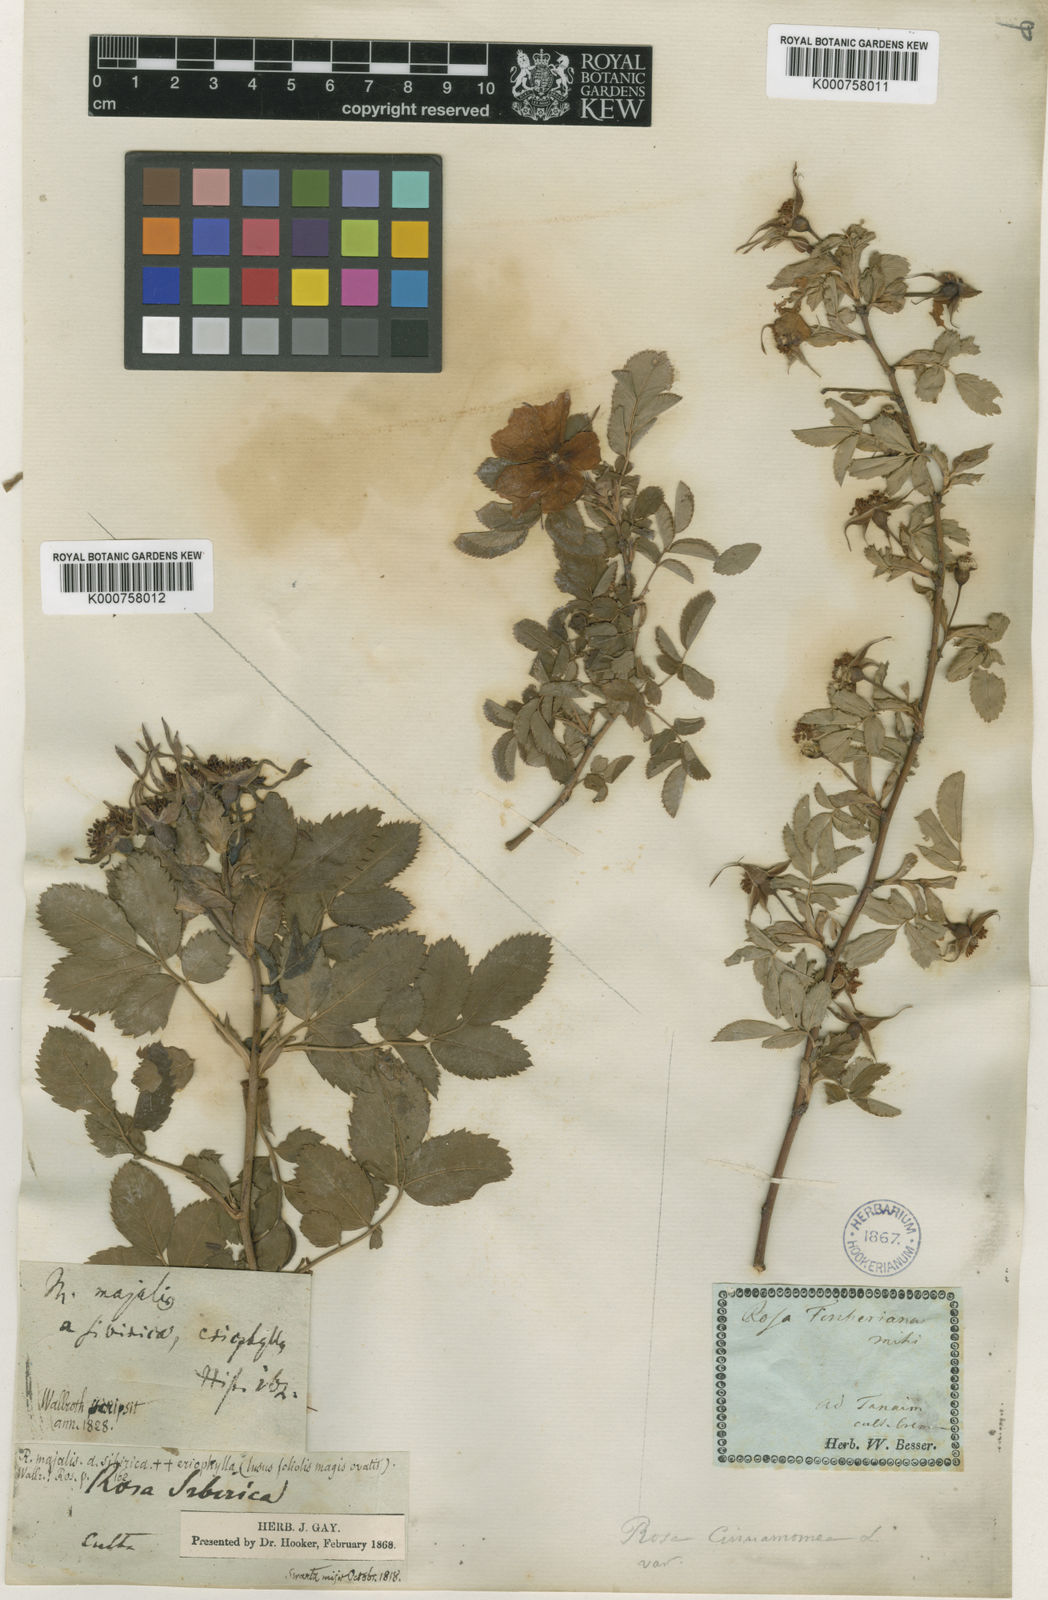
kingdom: Plantae
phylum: Tracheophyta
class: Magnoliopsida
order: Rosales
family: Rosaceae
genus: Rosa
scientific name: Rosa pendulina
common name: Alpine rose
